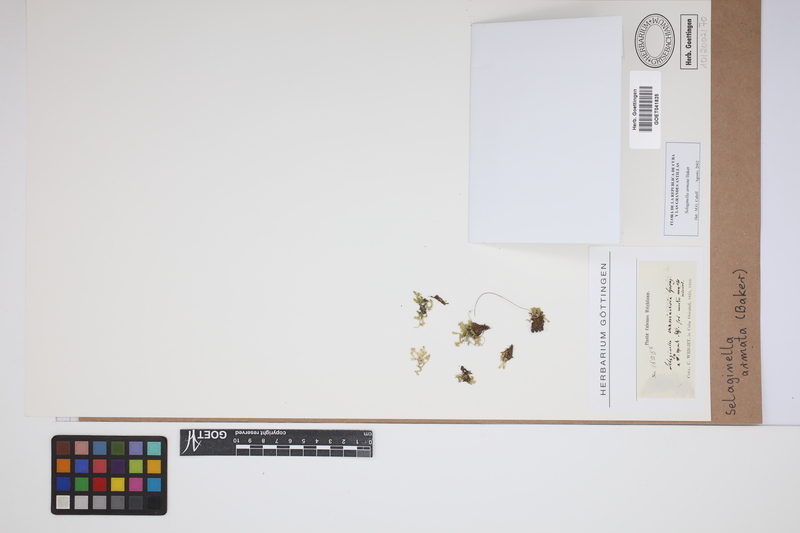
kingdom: Plantae
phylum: Tracheophyta
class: Lycopodiopsida
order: Selaginellales
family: Selaginellaceae
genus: Selaginella
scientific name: Selaginella armata
